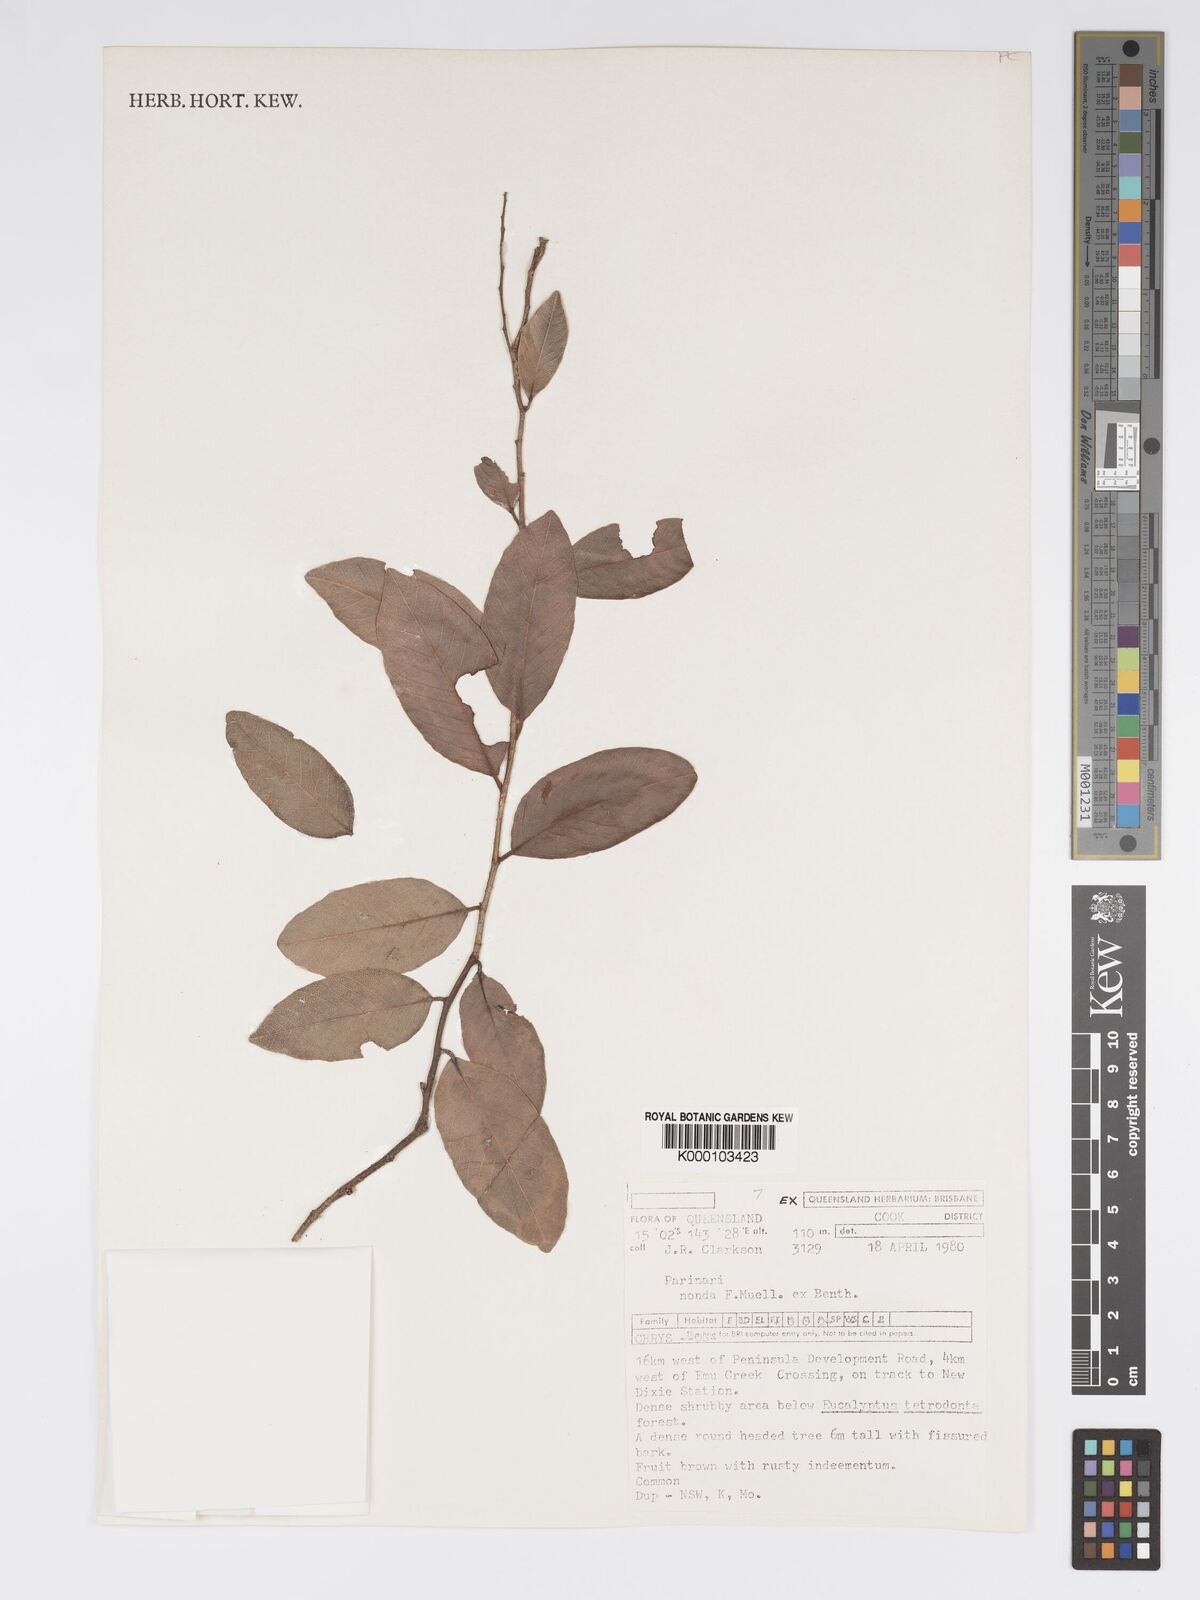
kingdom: Plantae
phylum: Tracheophyta
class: Magnoliopsida
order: Malpighiales
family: Chrysobalanaceae
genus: Parinari
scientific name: Parinari nonda
